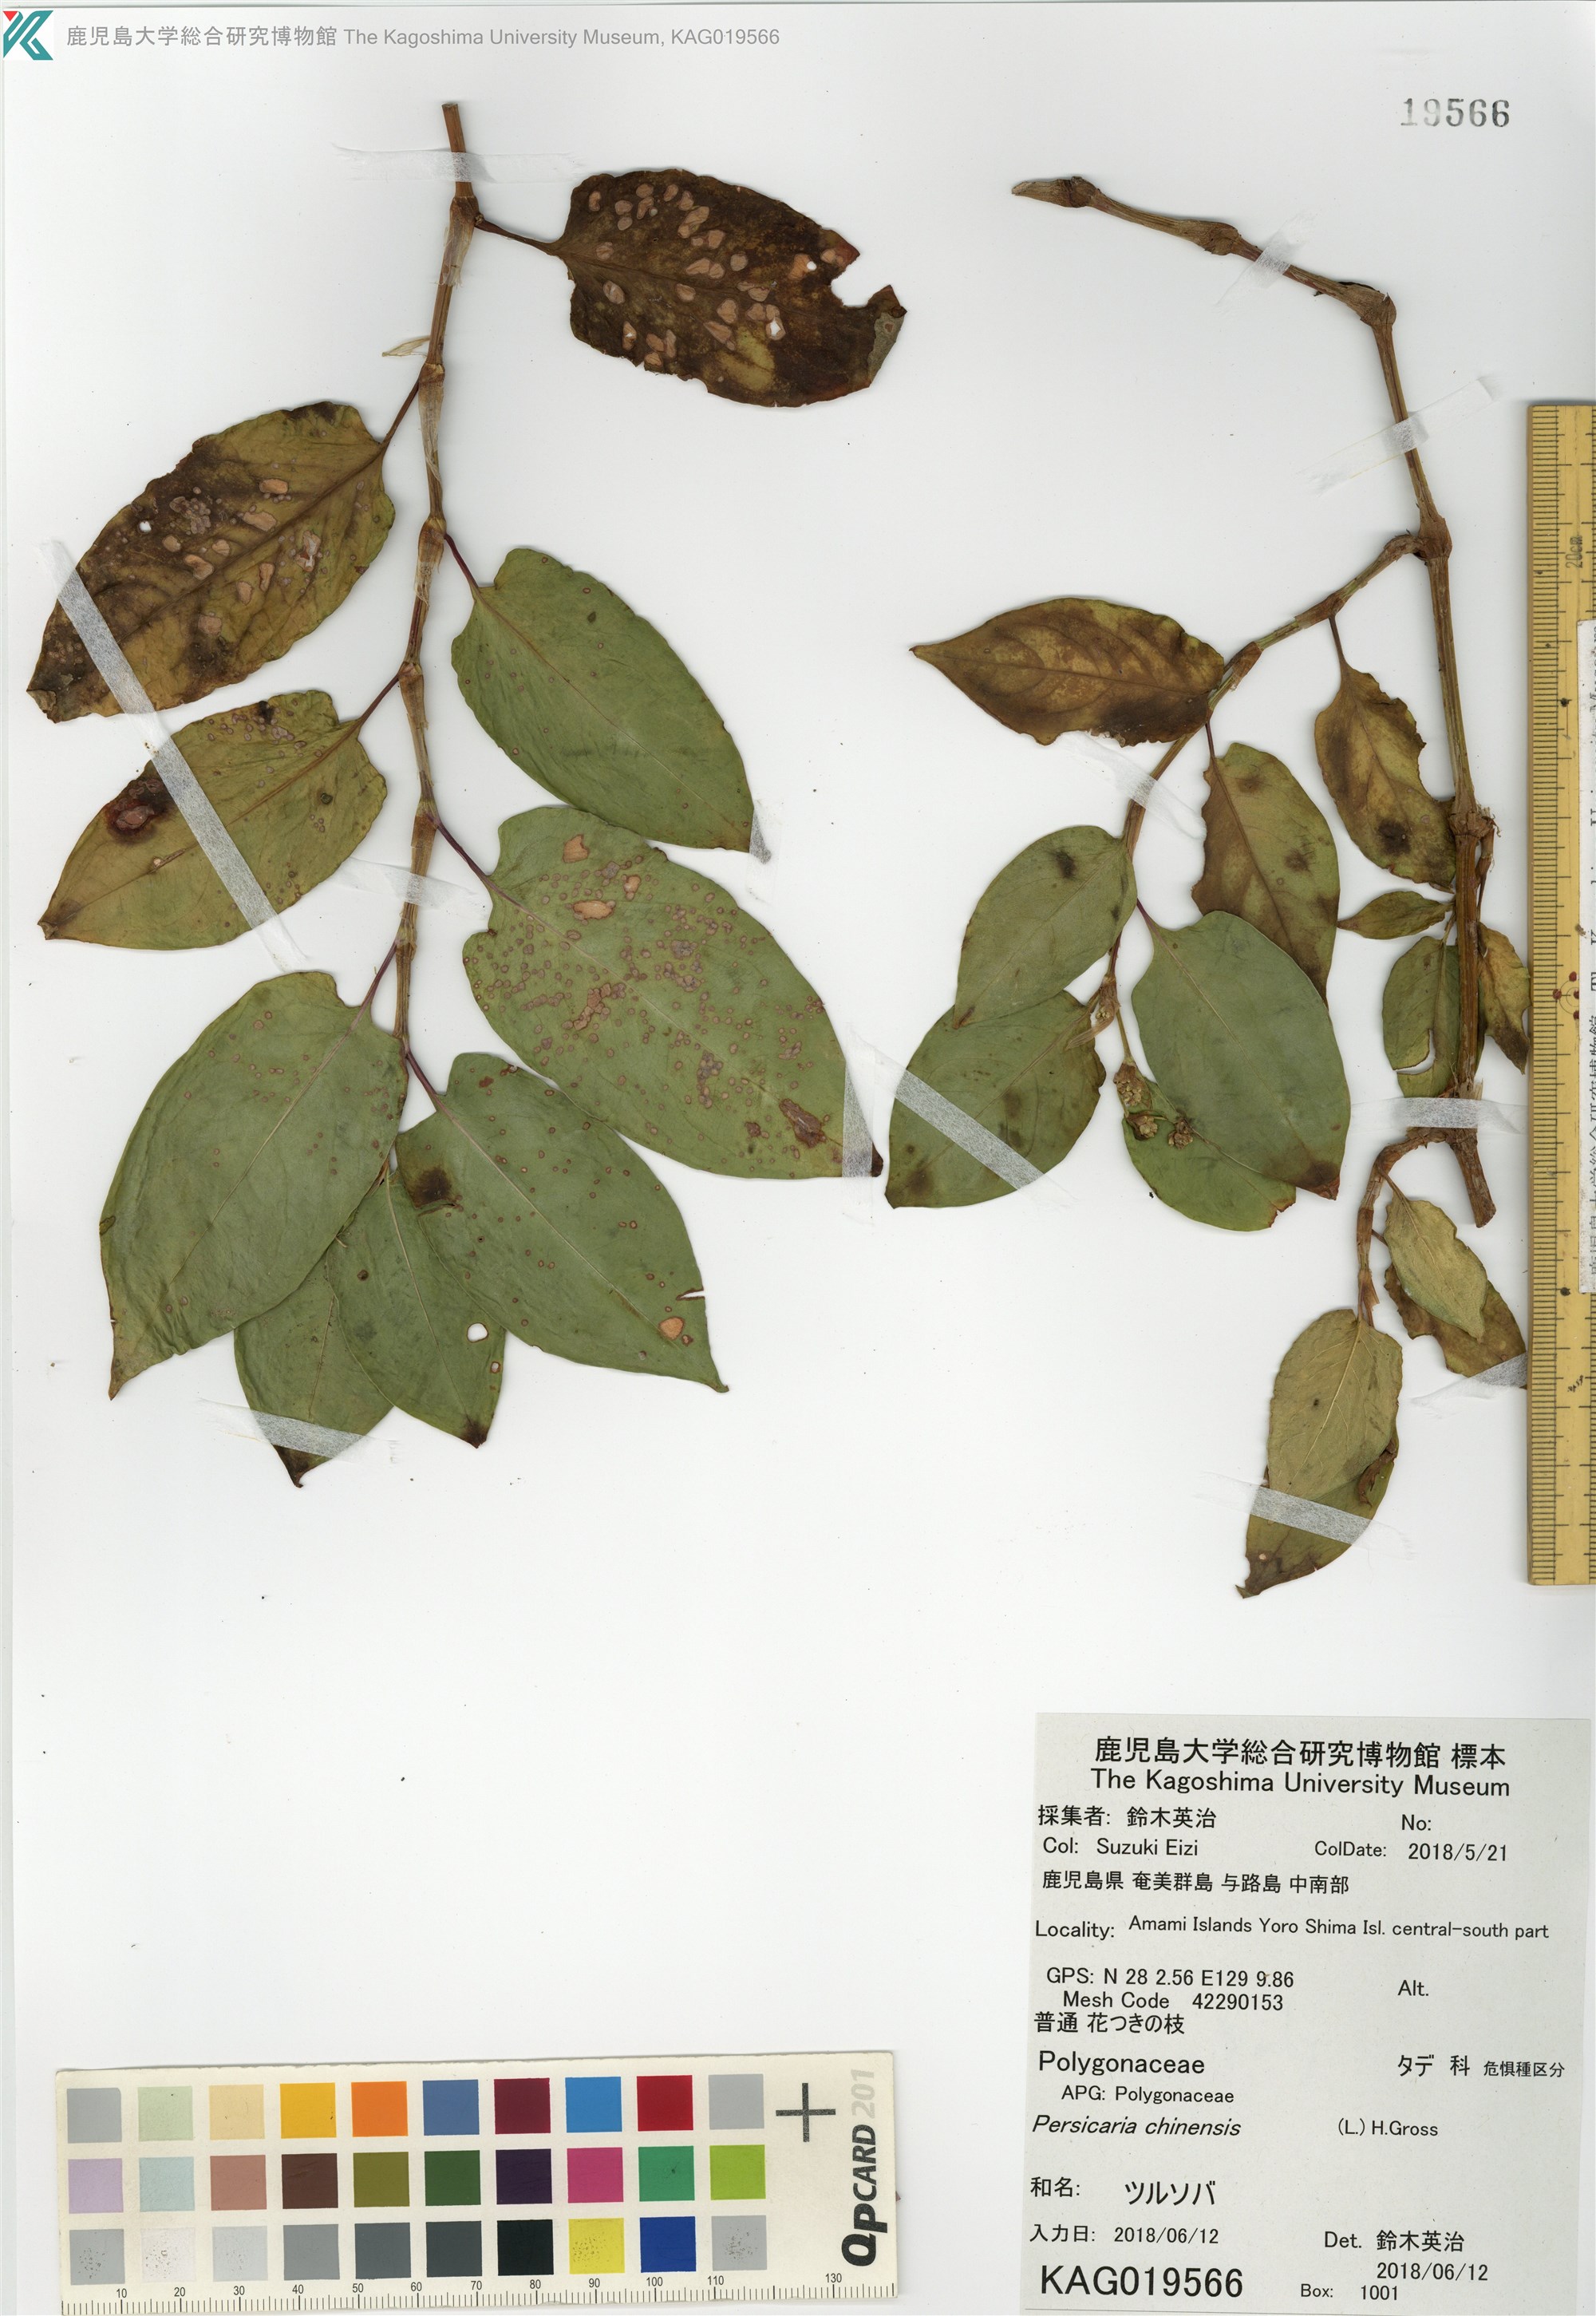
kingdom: Plantae
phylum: Tracheophyta
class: Magnoliopsida
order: Caryophyllales
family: Polygonaceae
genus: Persicaria
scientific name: Persicaria chinensis
